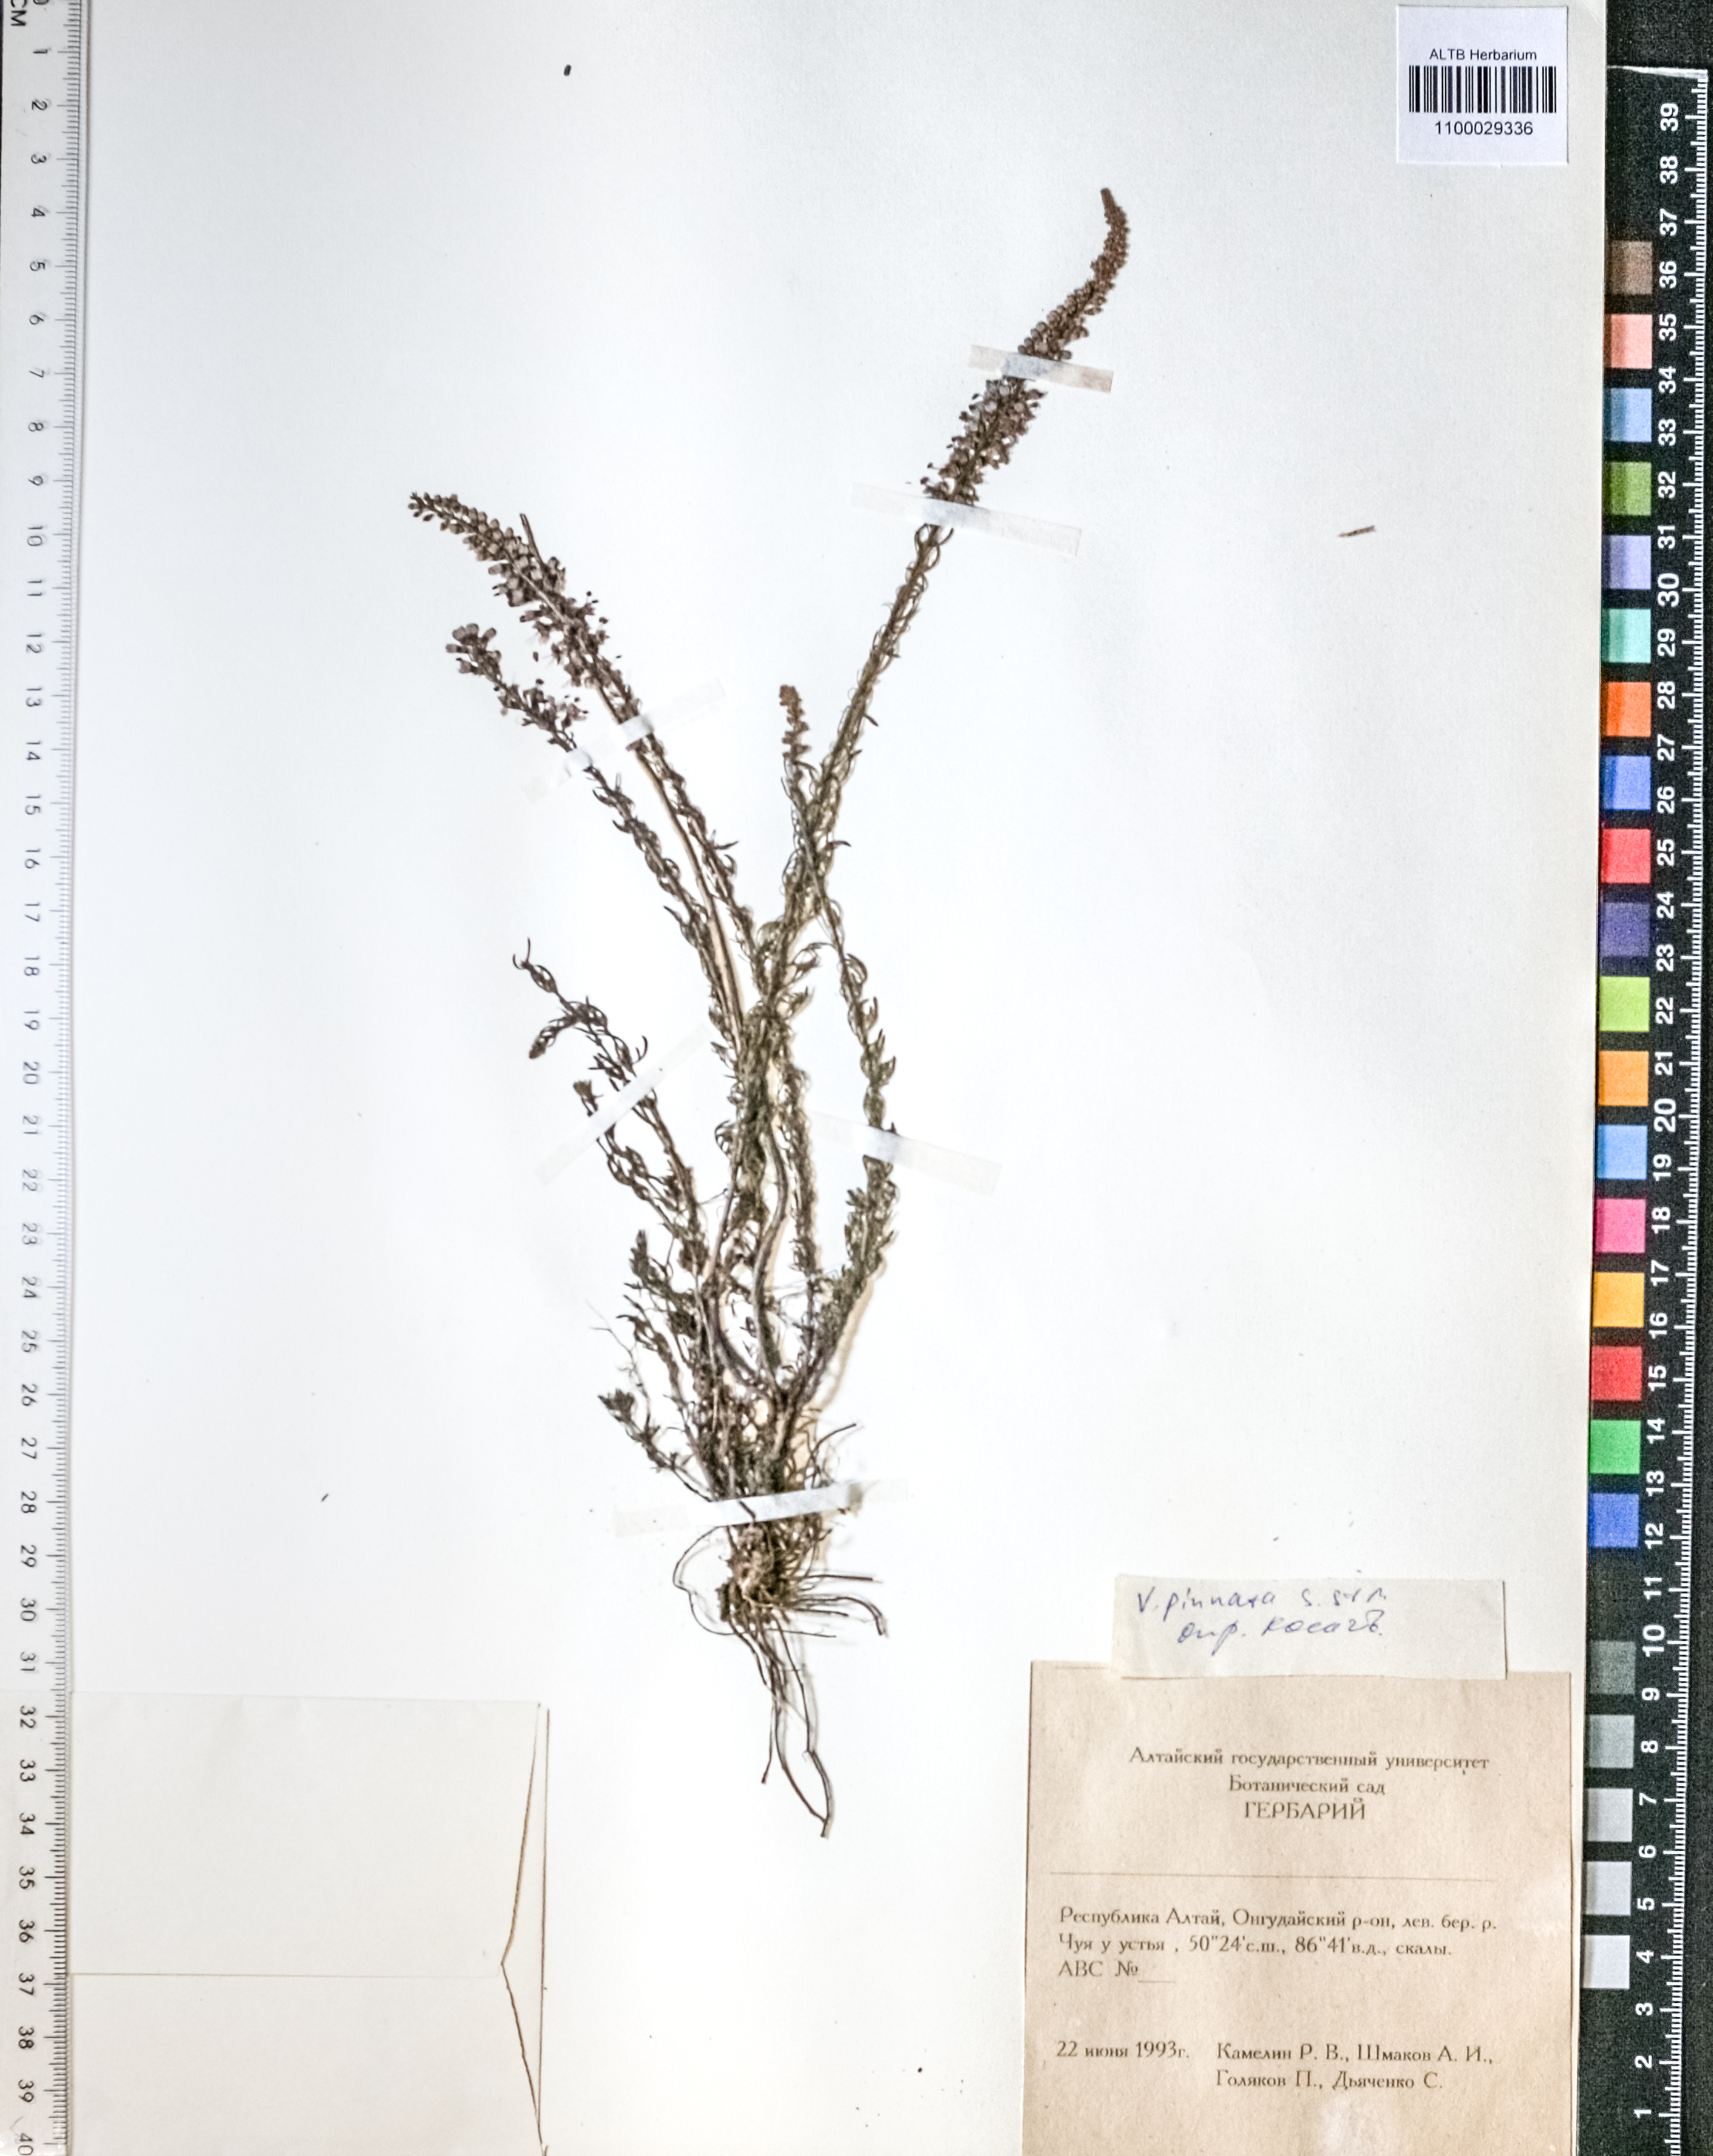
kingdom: Plantae
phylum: Tracheophyta
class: Magnoliopsida
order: Lamiales
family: Plantaginaceae
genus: Veronica
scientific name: Veronica pinnata
